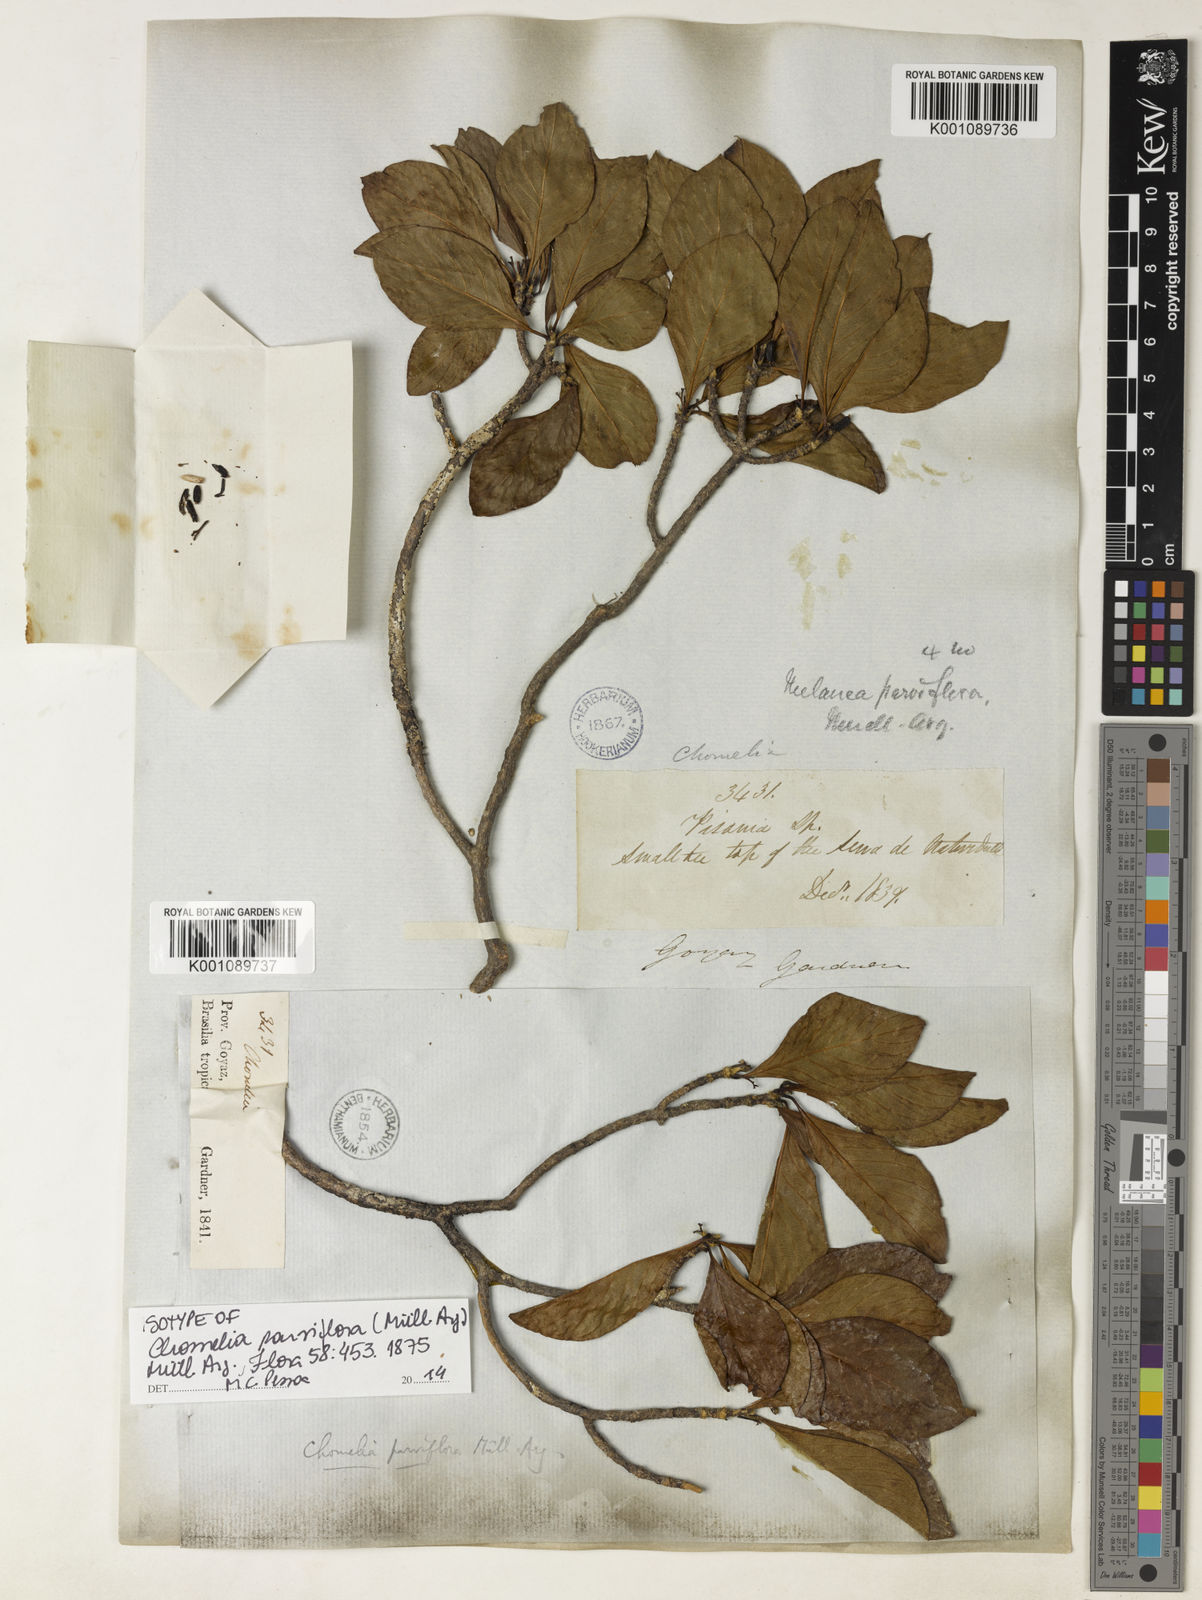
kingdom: Plantae
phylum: Tracheophyta
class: Magnoliopsida
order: Gentianales
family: Rubiaceae
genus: Chomelia
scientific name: Chomelia
